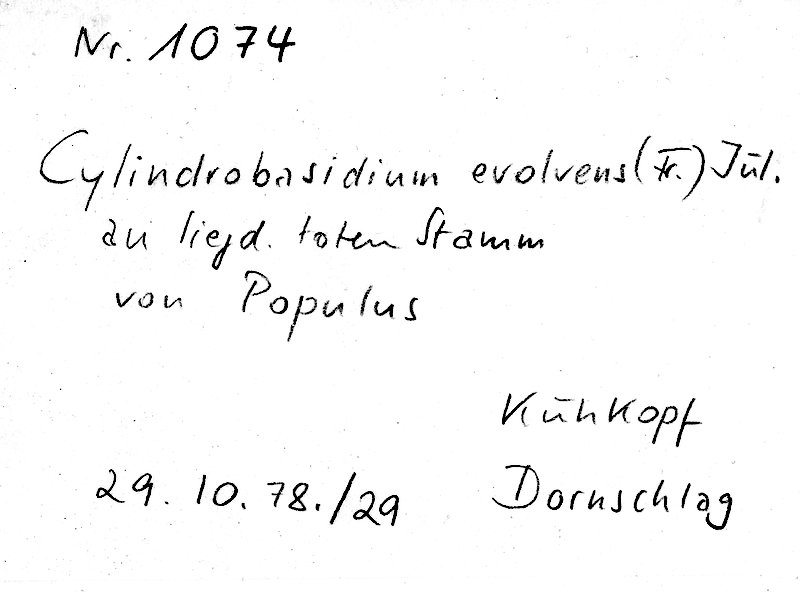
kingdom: Fungi
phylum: Basidiomycota
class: Agaricomycetes
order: Agaricales
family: Physalacriaceae
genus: Cylindrobasidium
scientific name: Cylindrobasidium evolvens
